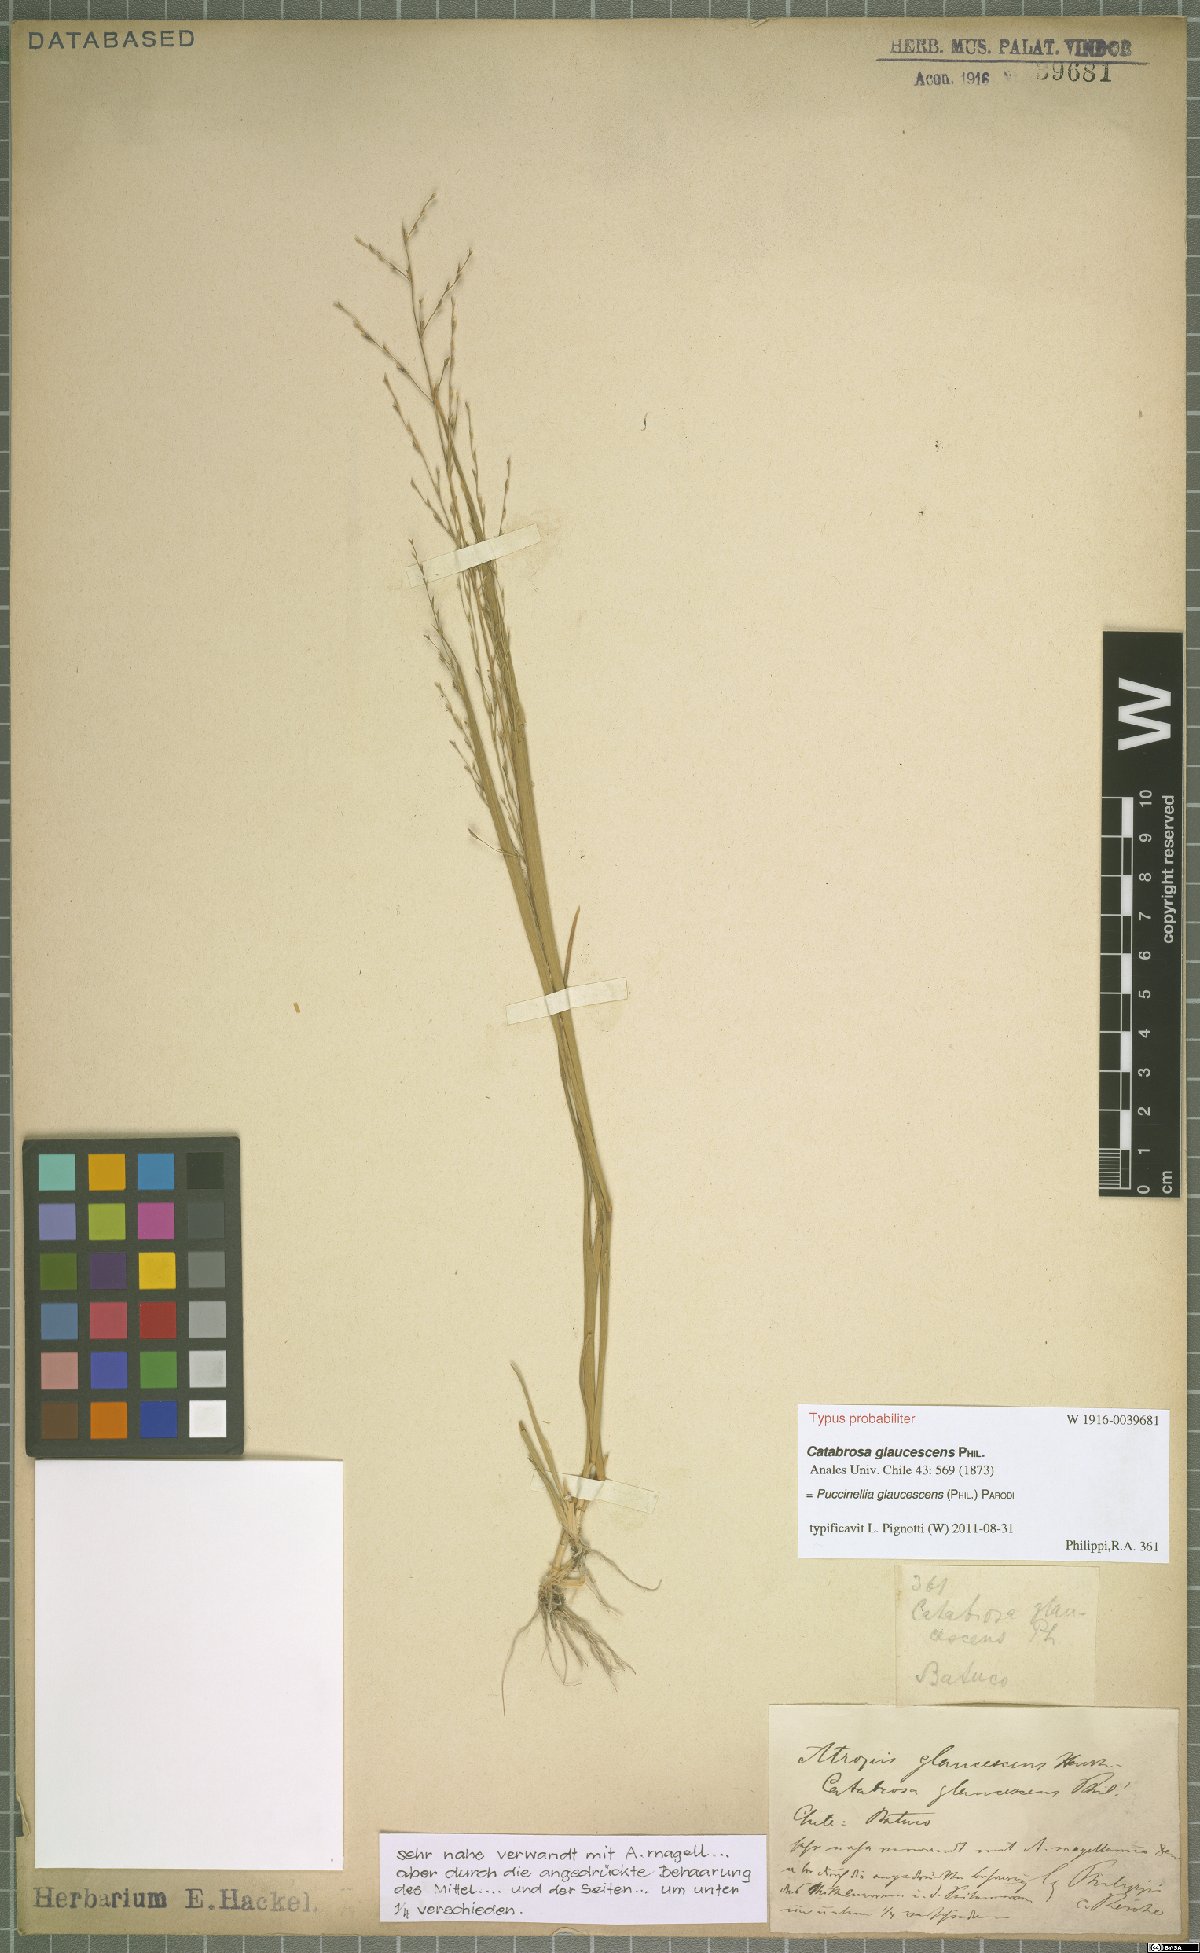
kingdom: Plantae
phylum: Tracheophyta
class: Liliopsida
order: Poales
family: Poaceae
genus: Puccinellia
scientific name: Puccinellia glaucescens
